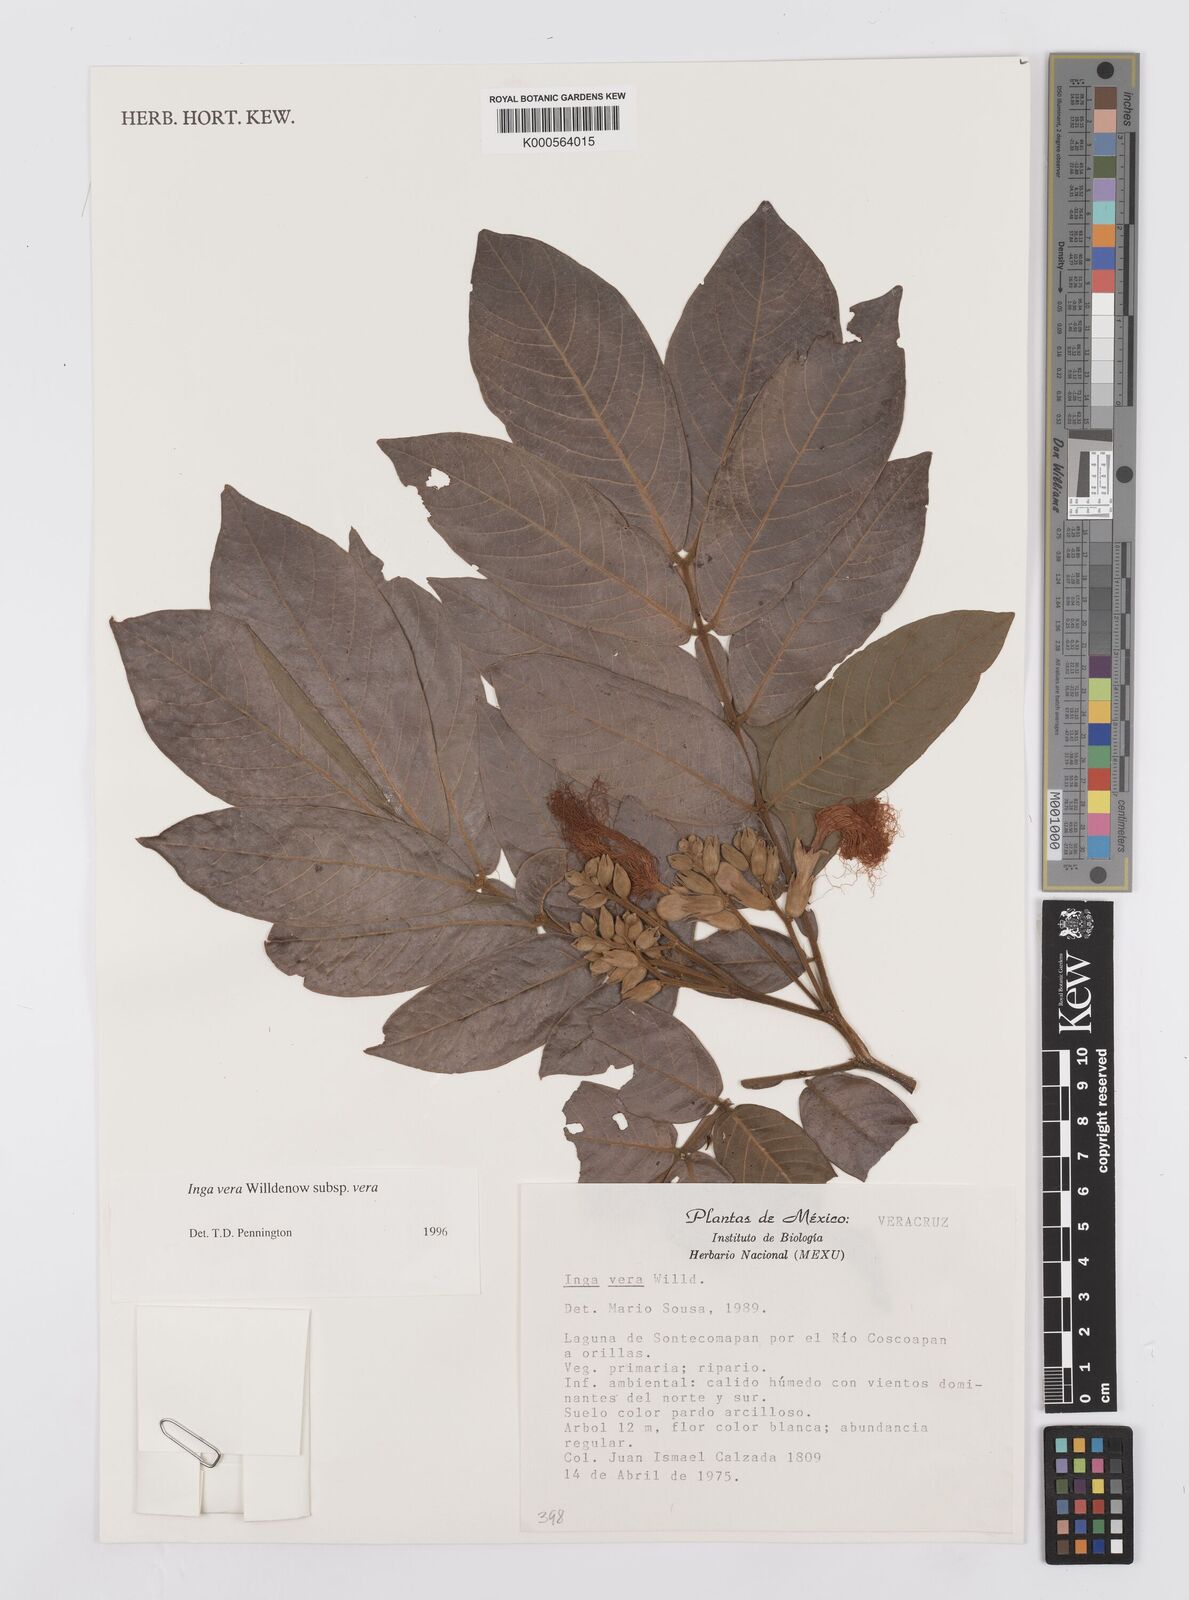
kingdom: Plantae
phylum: Tracheophyta
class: Magnoliopsida
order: Fabales
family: Fabaceae
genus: Inga
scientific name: Inga vera
